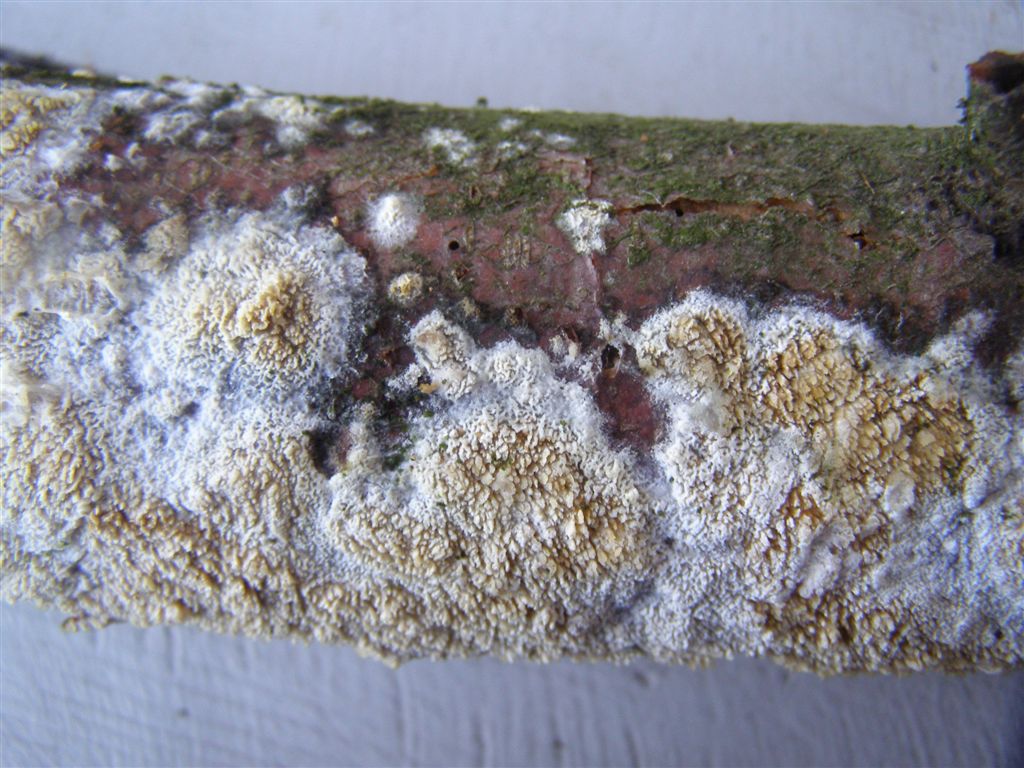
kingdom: Fungi
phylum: Basidiomycota
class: Agaricomycetes
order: Hymenochaetales
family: Schizoporaceae
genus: Xylodon
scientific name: Xylodon radula
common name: grovtandet kalkskind
